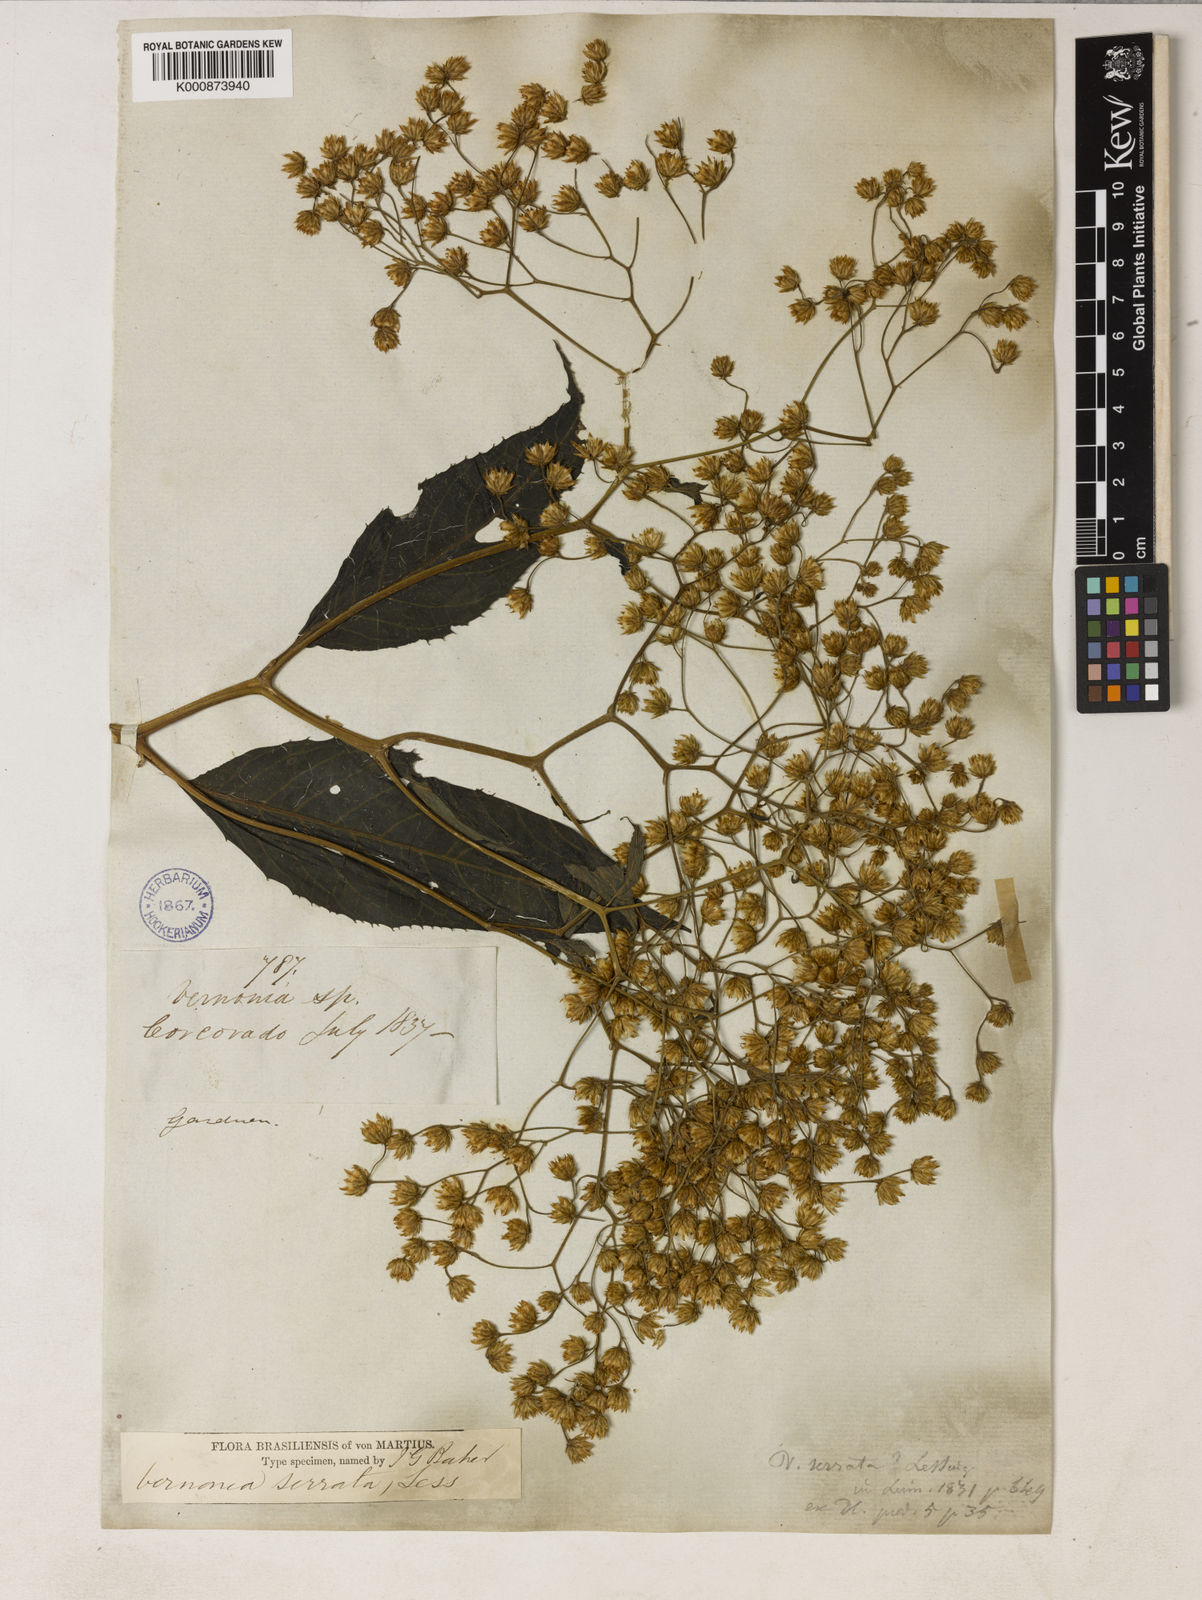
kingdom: Plantae
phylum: Tracheophyta
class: Magnoliopsida
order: Asterales
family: Asteraceae
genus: Dasyanthina
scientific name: Dasyanthina serrata
